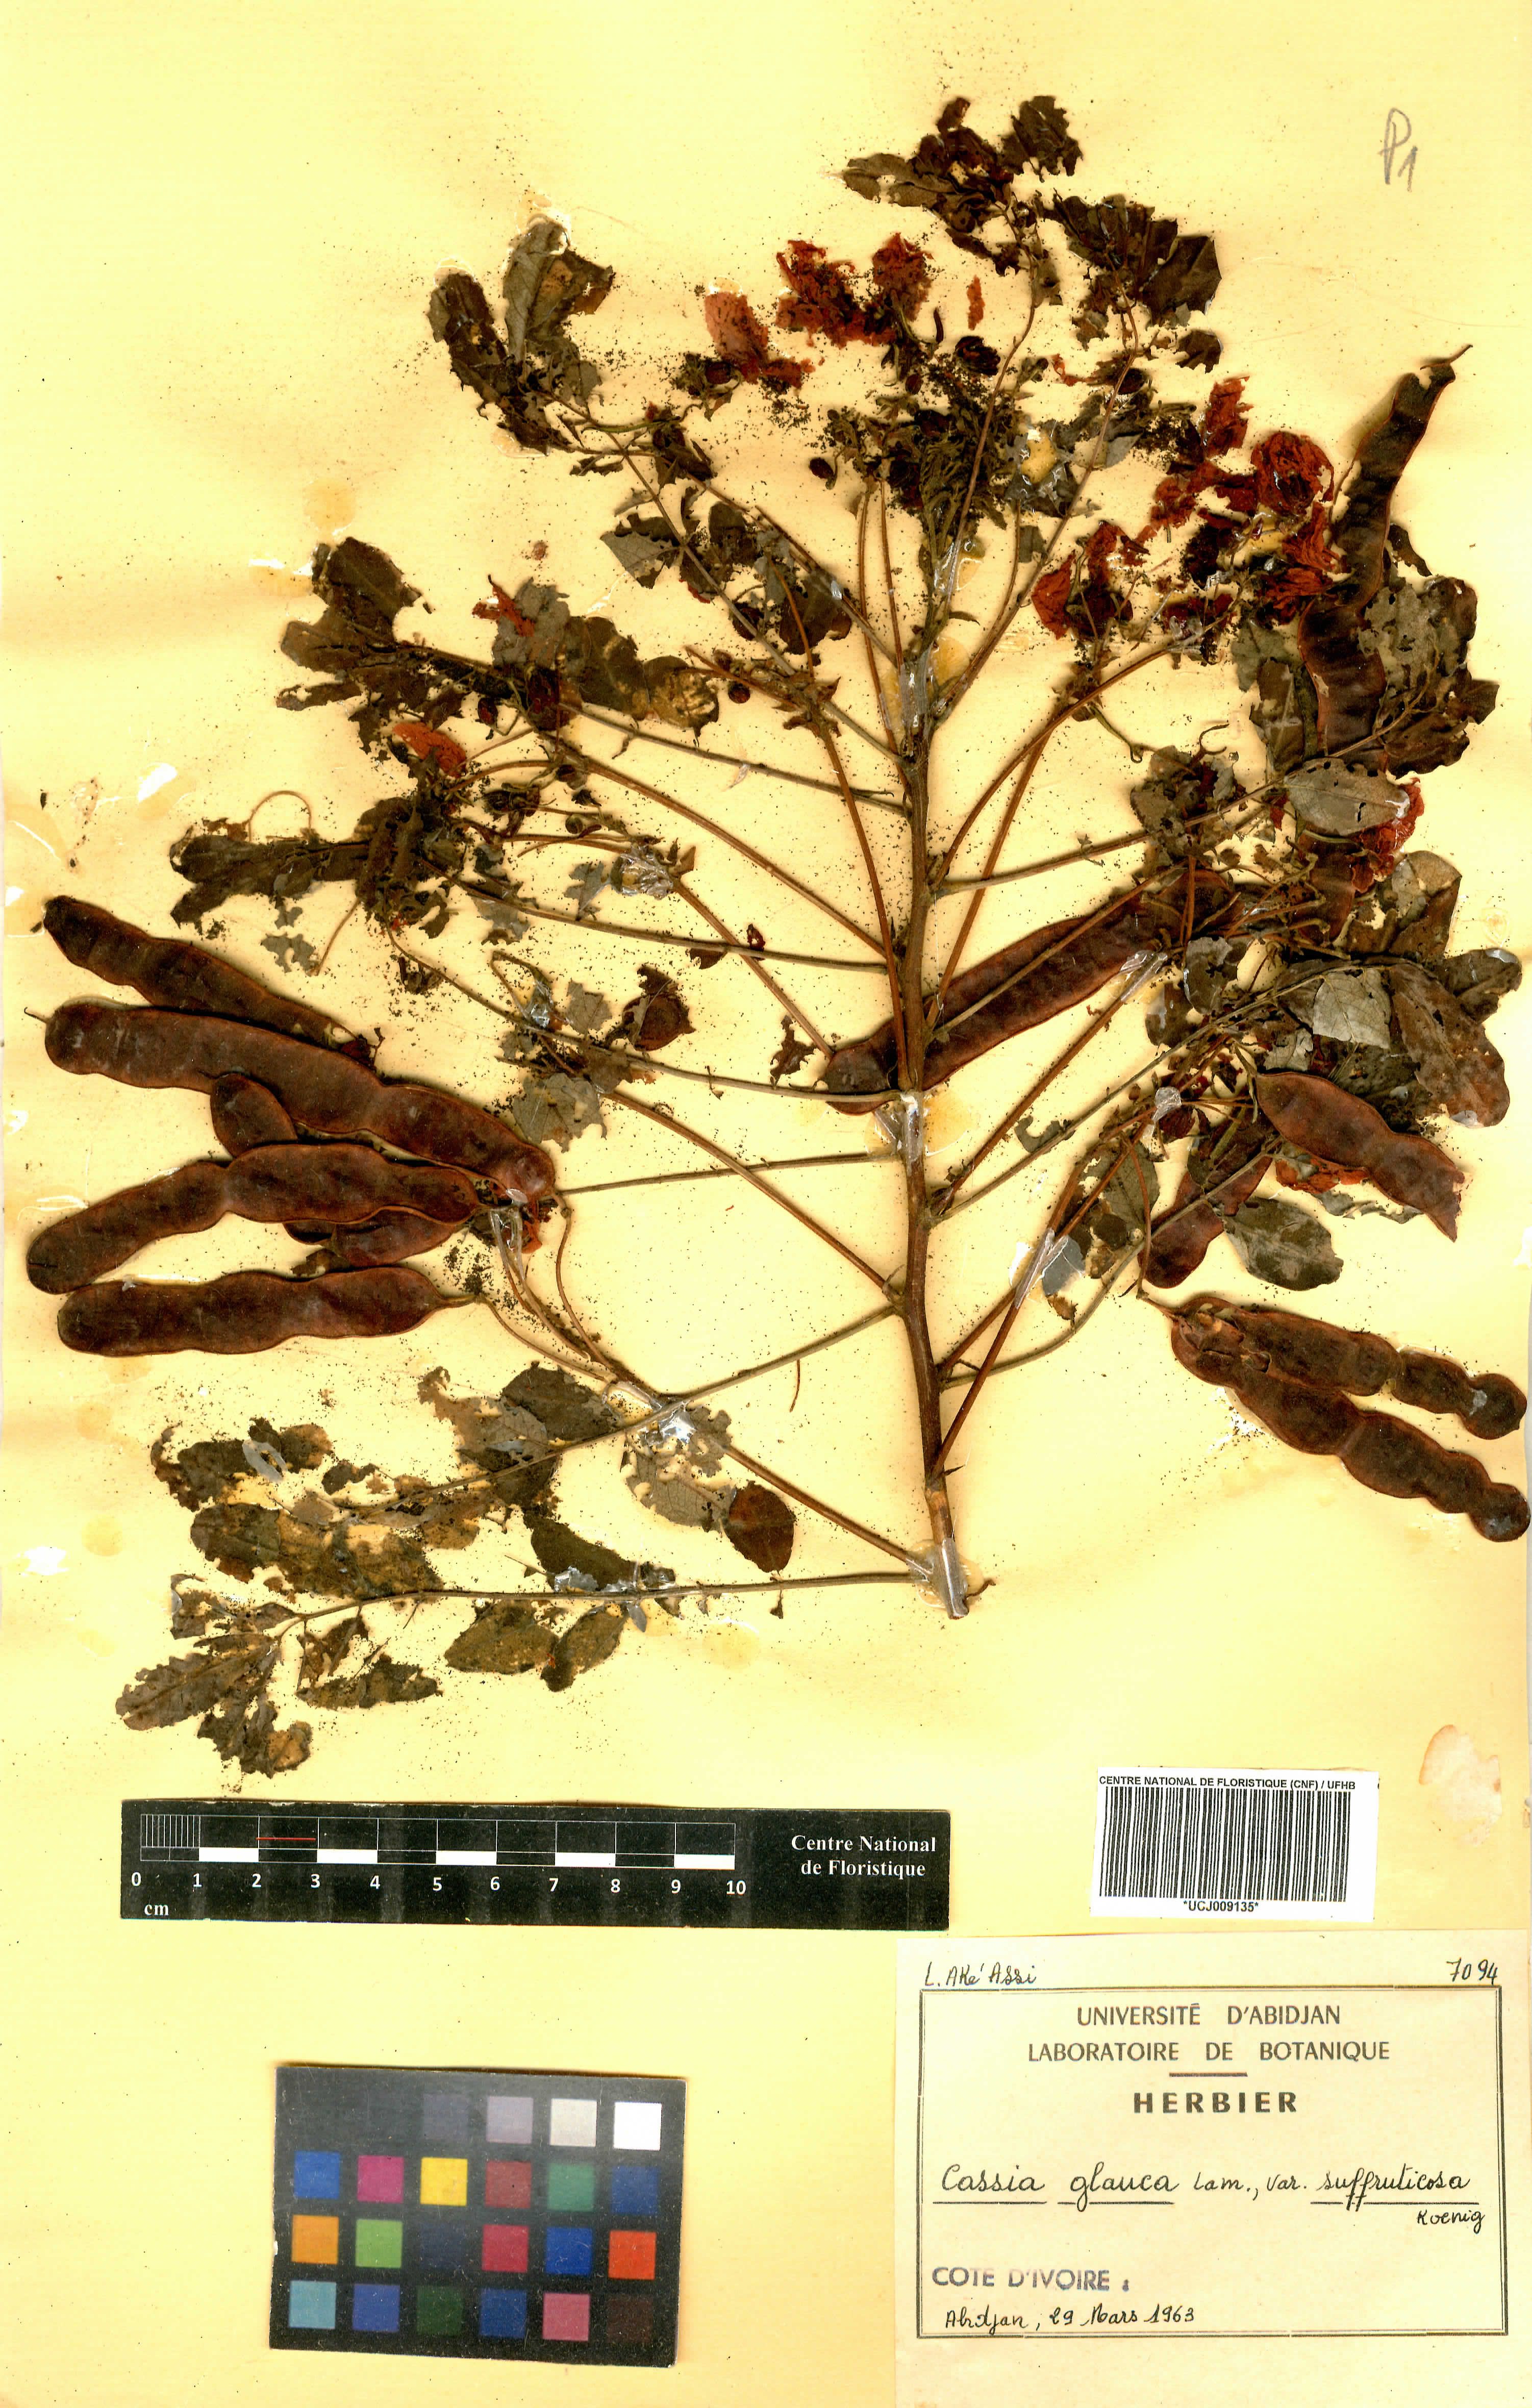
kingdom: Plantae
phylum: Tracheophyta
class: Magnoliopsida
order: Fabales
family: Fabaceae
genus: Senna
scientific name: Senna surattensis
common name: Glossy shower
